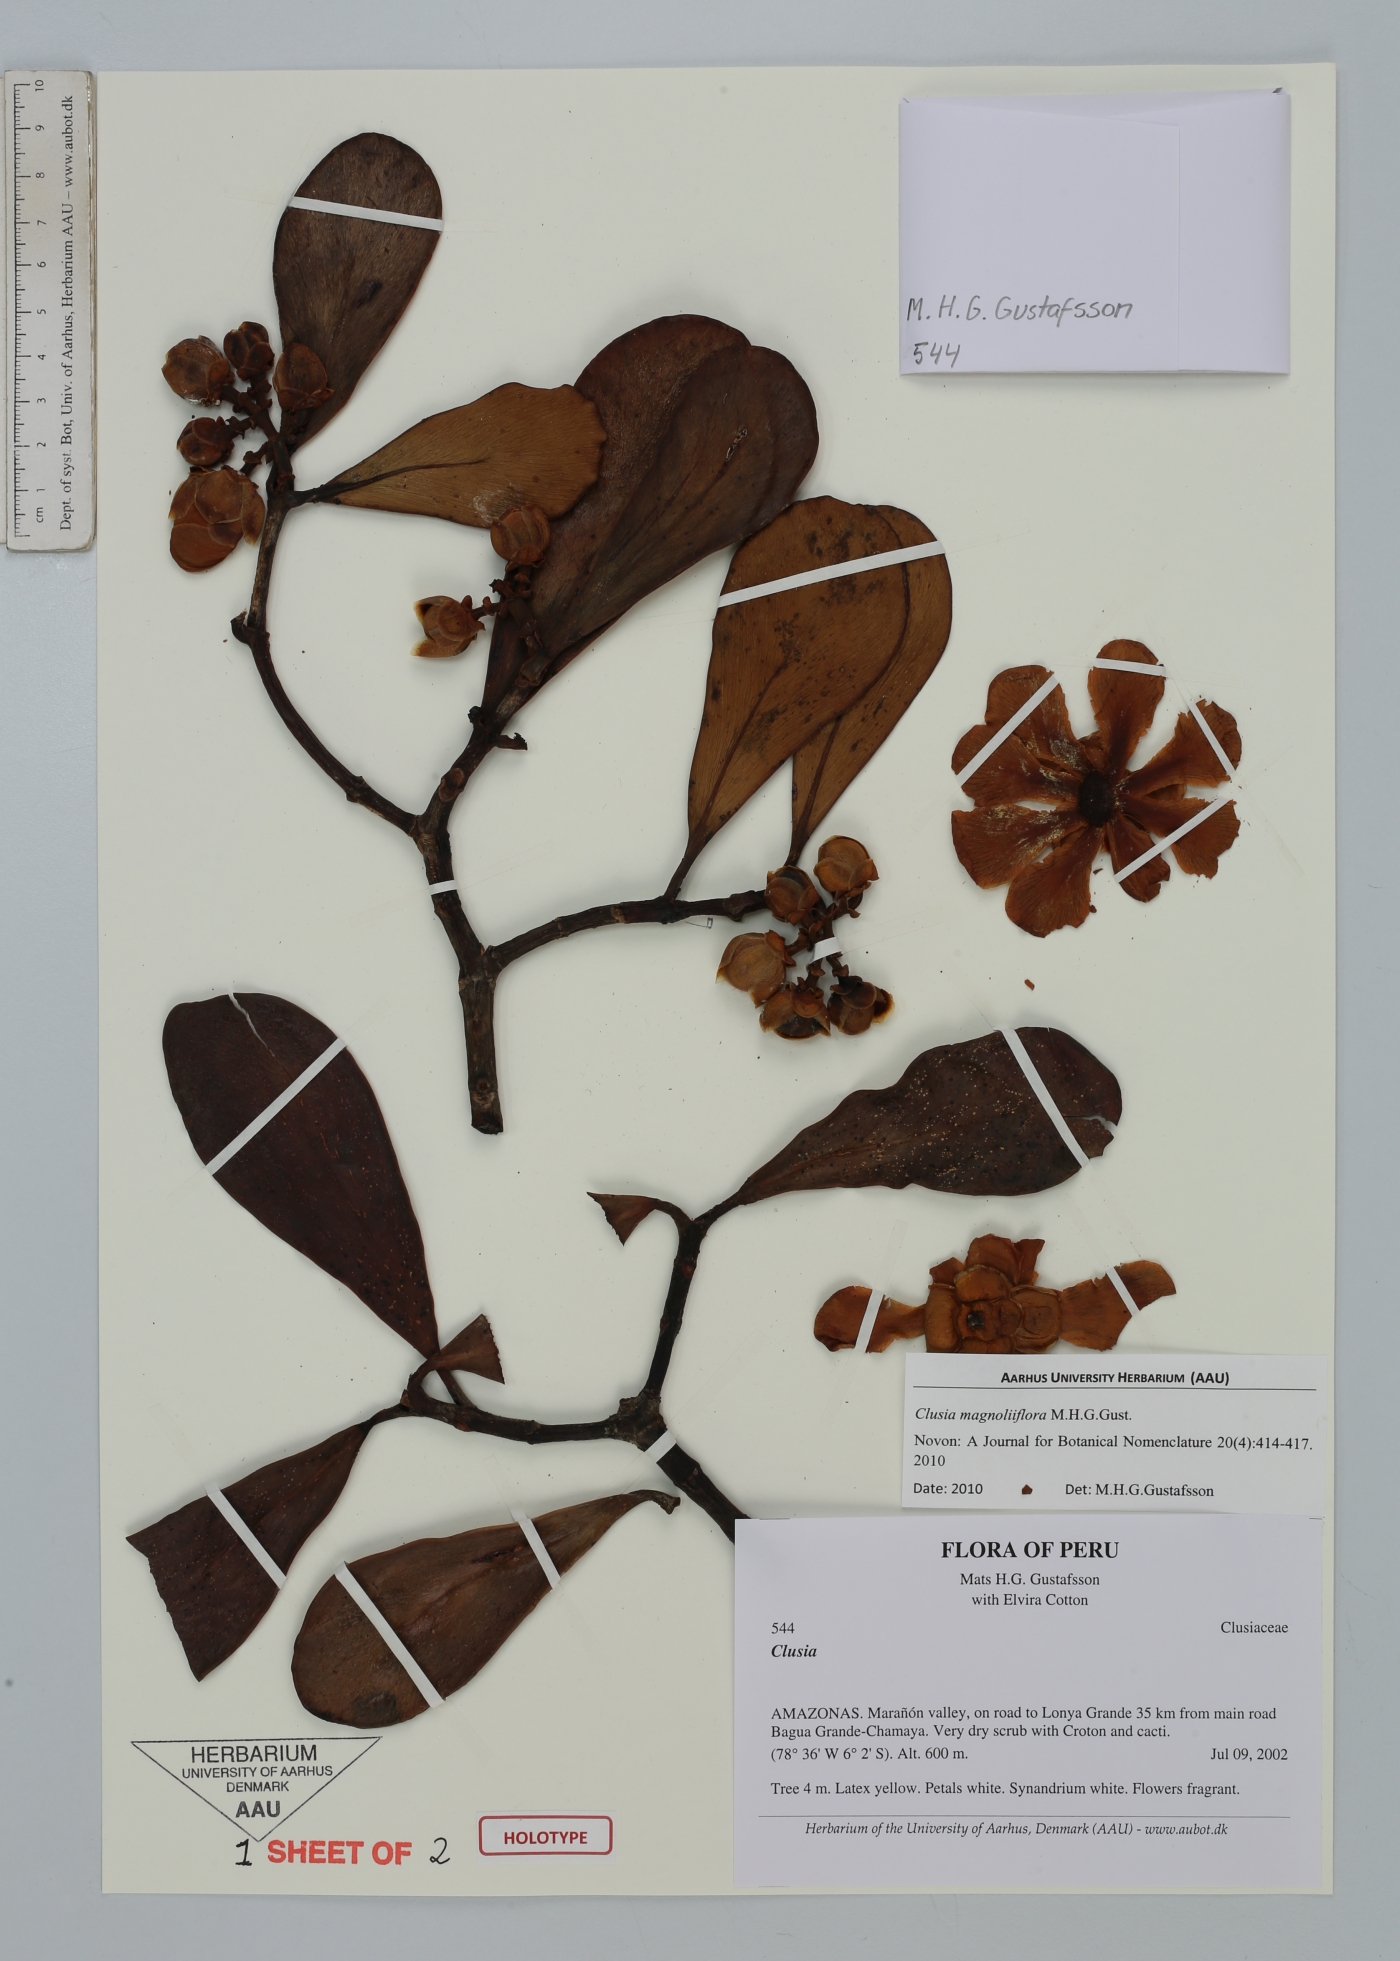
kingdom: Plantae
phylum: Tracheophyta
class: Magnoliopsida
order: Malpighiales
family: Clusiaceae
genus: Clusia
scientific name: Clusia magnoliiflora
